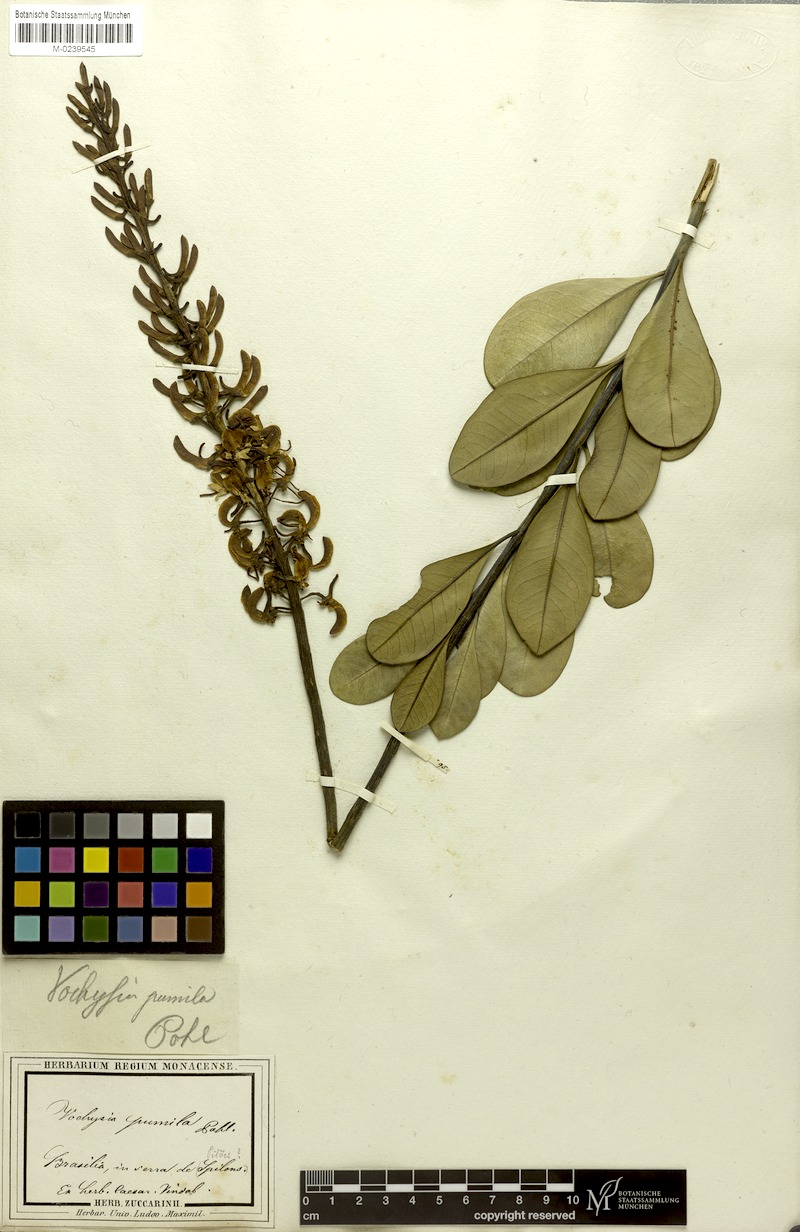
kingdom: Plantae
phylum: Tracheophyta
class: Magnoliopsida
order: Myrtales
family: Vochysiaceae
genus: Vochysia
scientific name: Vochysia pumila
